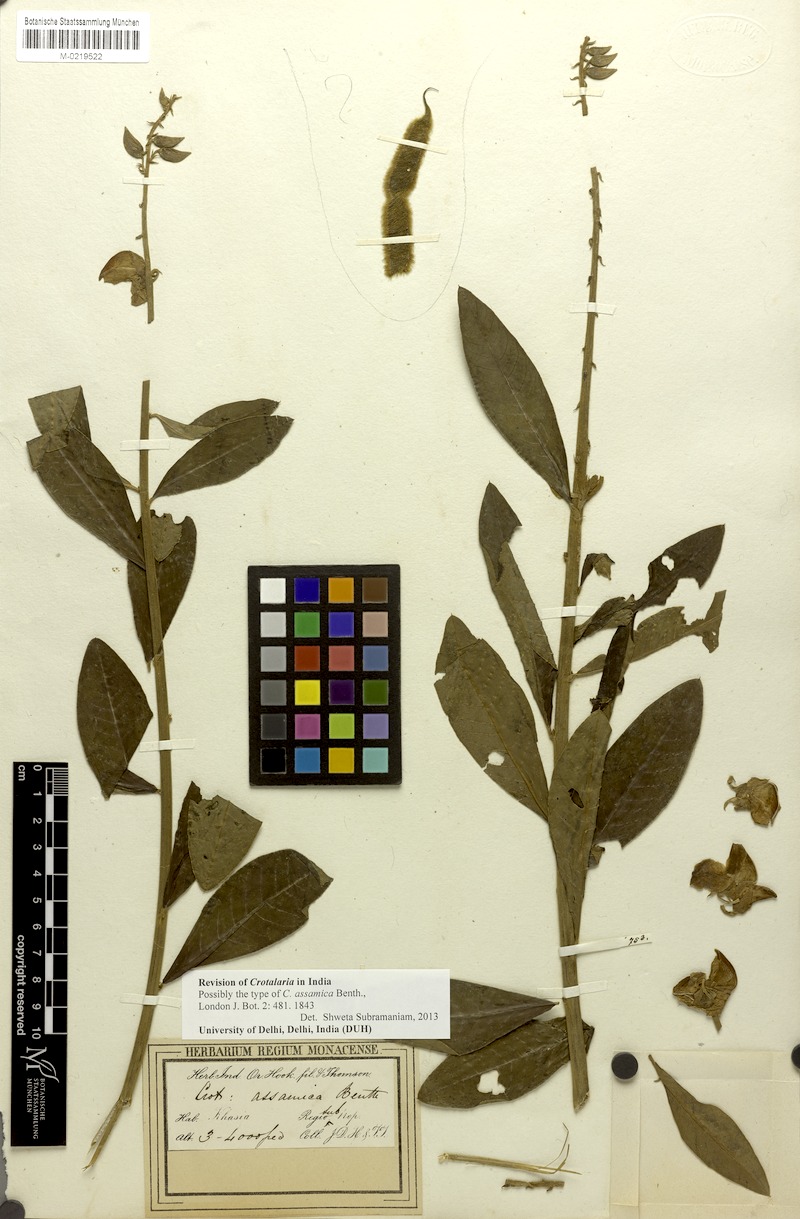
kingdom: Plantae
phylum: Tracheophyta
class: Magnoliopsida
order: Fabales
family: Fabaceae
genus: Crotalaria
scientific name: Crotalaria sericea
